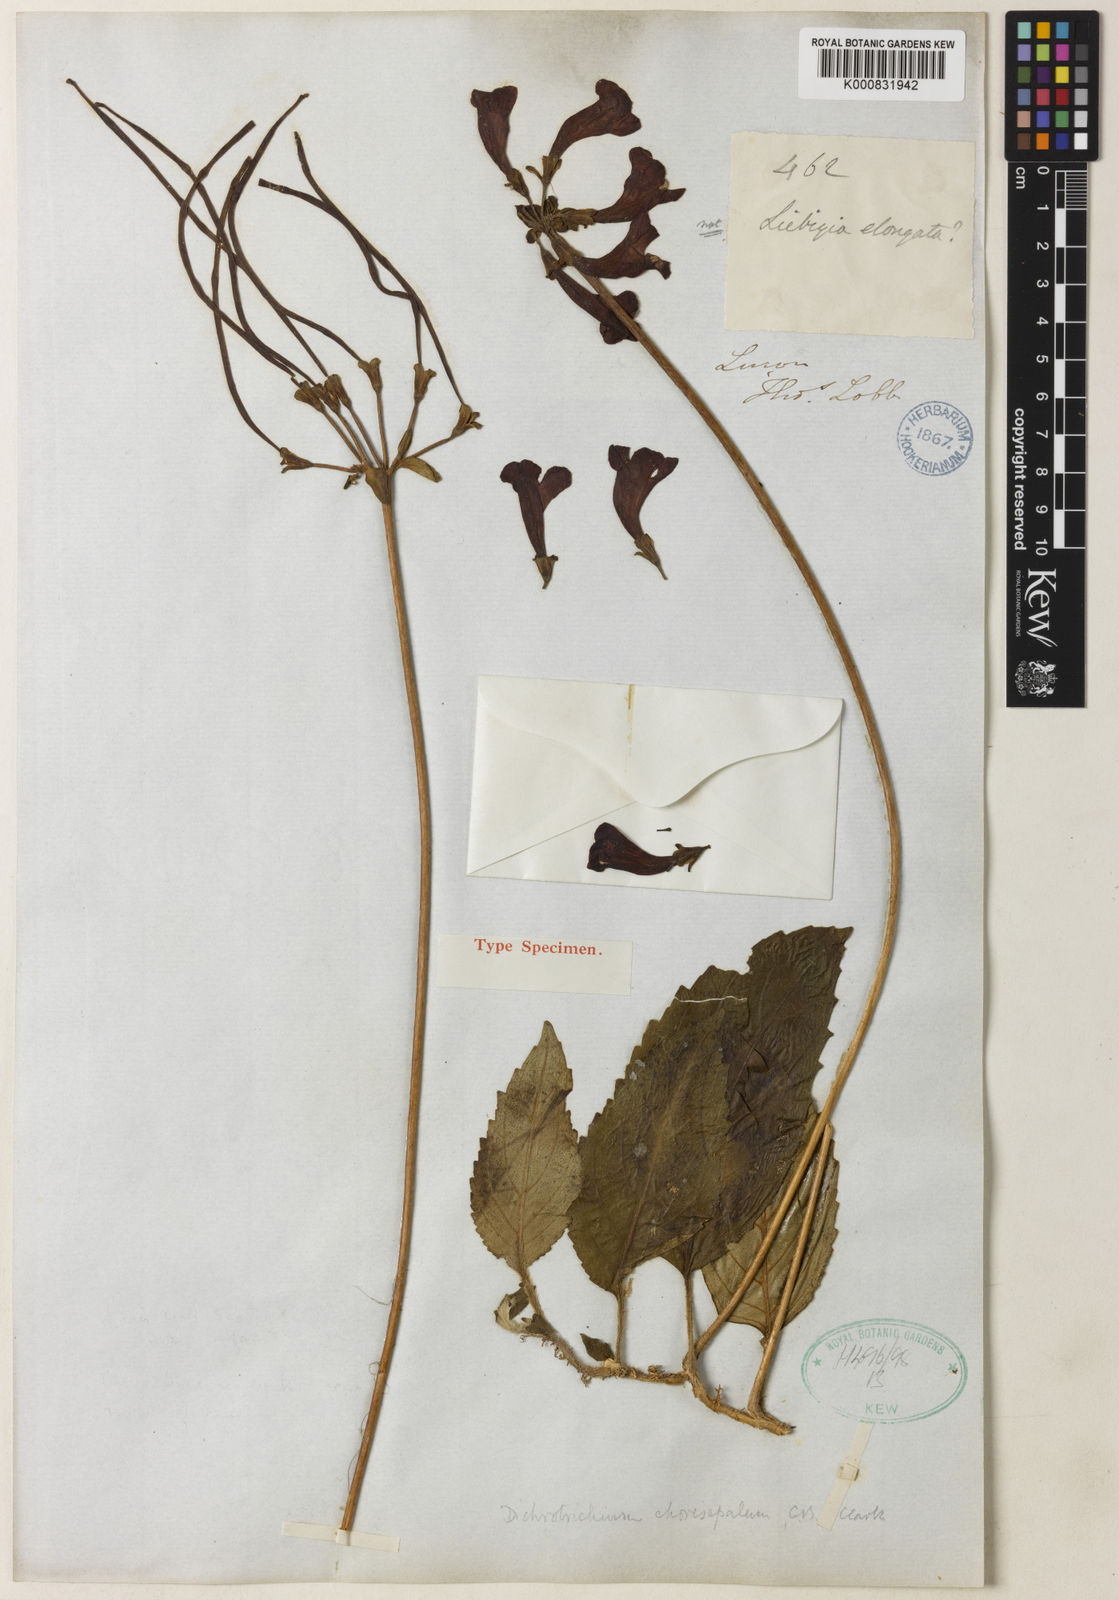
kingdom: Plantae
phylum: Tracheophyta
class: Magnoliopsida
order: Lamiales
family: Gesneriaceae
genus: Agalmyla
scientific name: Agalmyla chorisepala
